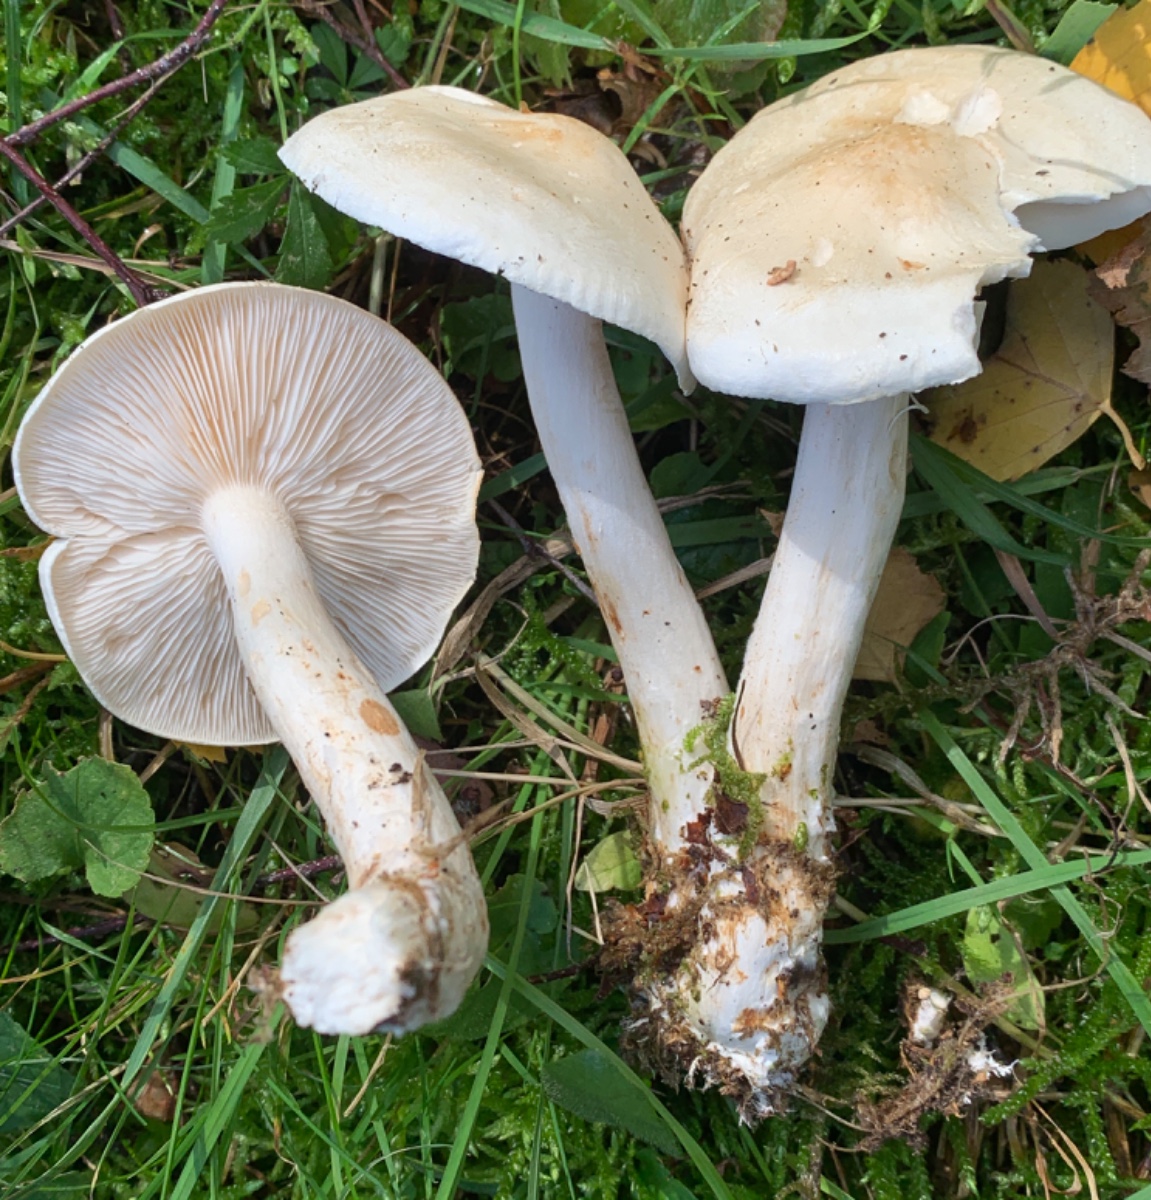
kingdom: Fungi
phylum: Basidiomycota
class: Agaricomycetes
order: Agaricales
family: Tricholomataceae
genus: Tricholoma
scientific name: Tricholoma stiparophyllum
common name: hvid ridderhat
